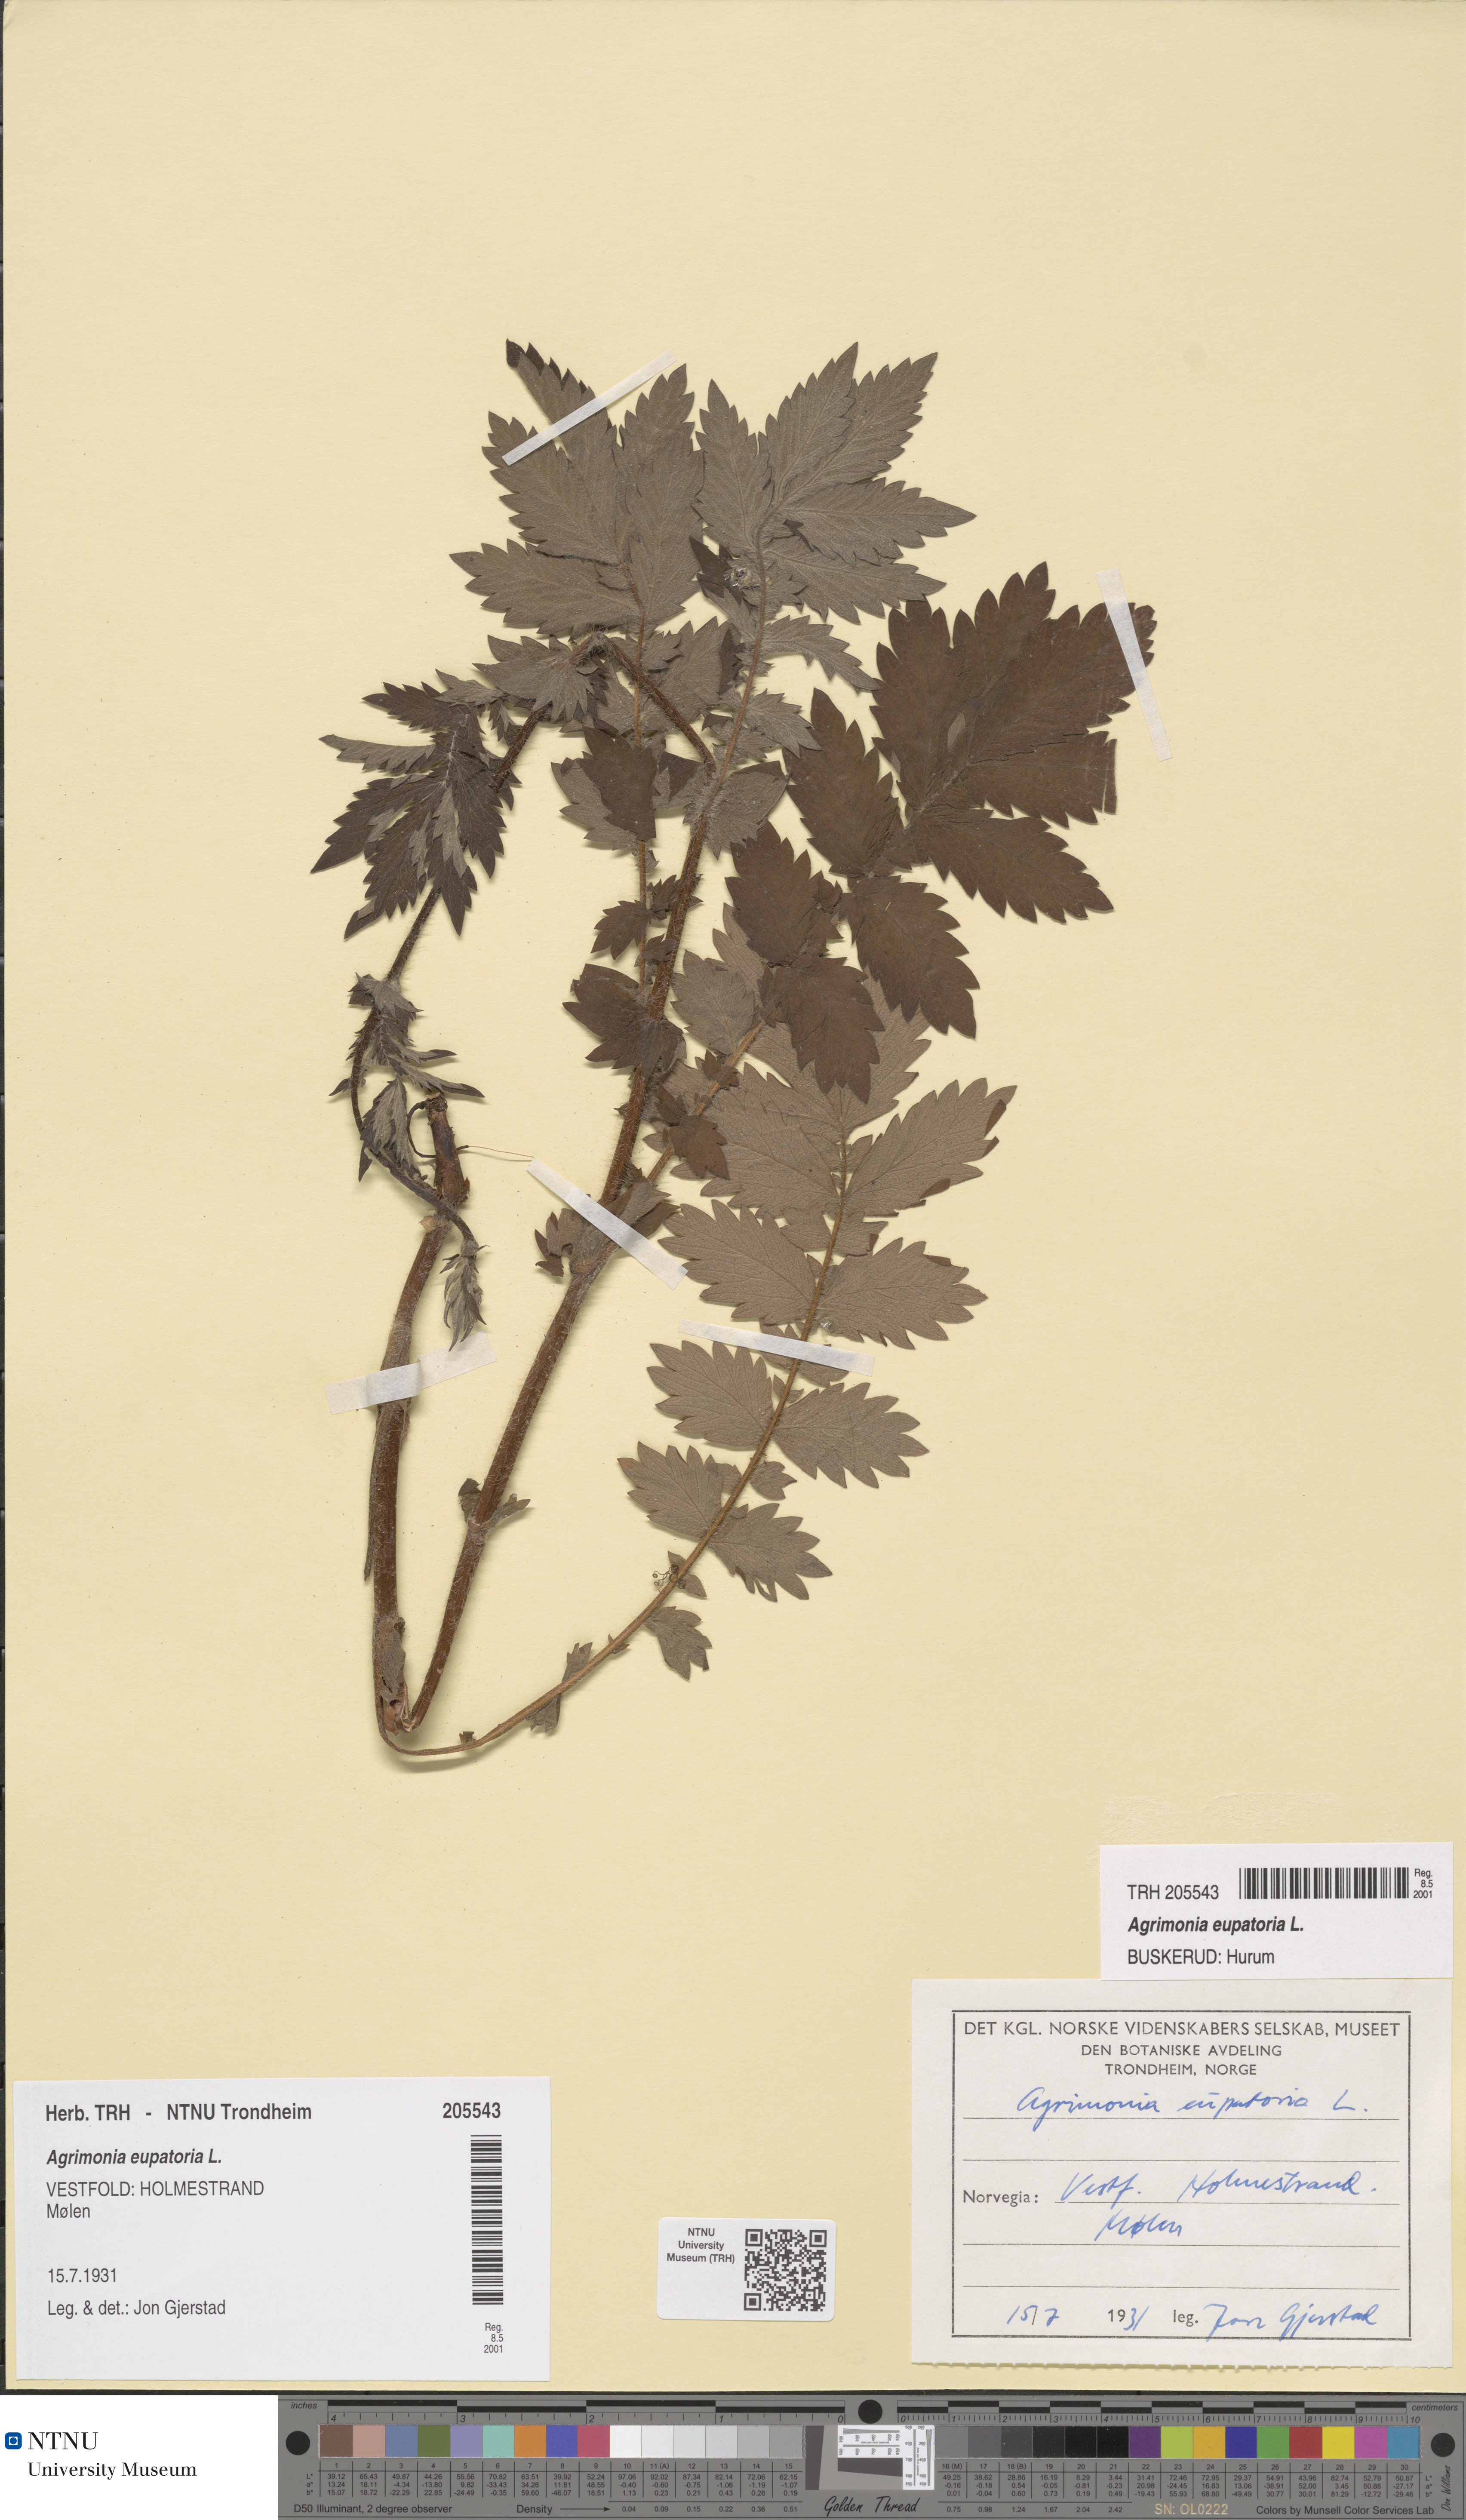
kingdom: Plantae
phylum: Tracheophyta
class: Magnoliopsida
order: Rosales
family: Rosaceae
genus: Agrimonia
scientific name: Agrimonia eupatoria
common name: Agrimony
